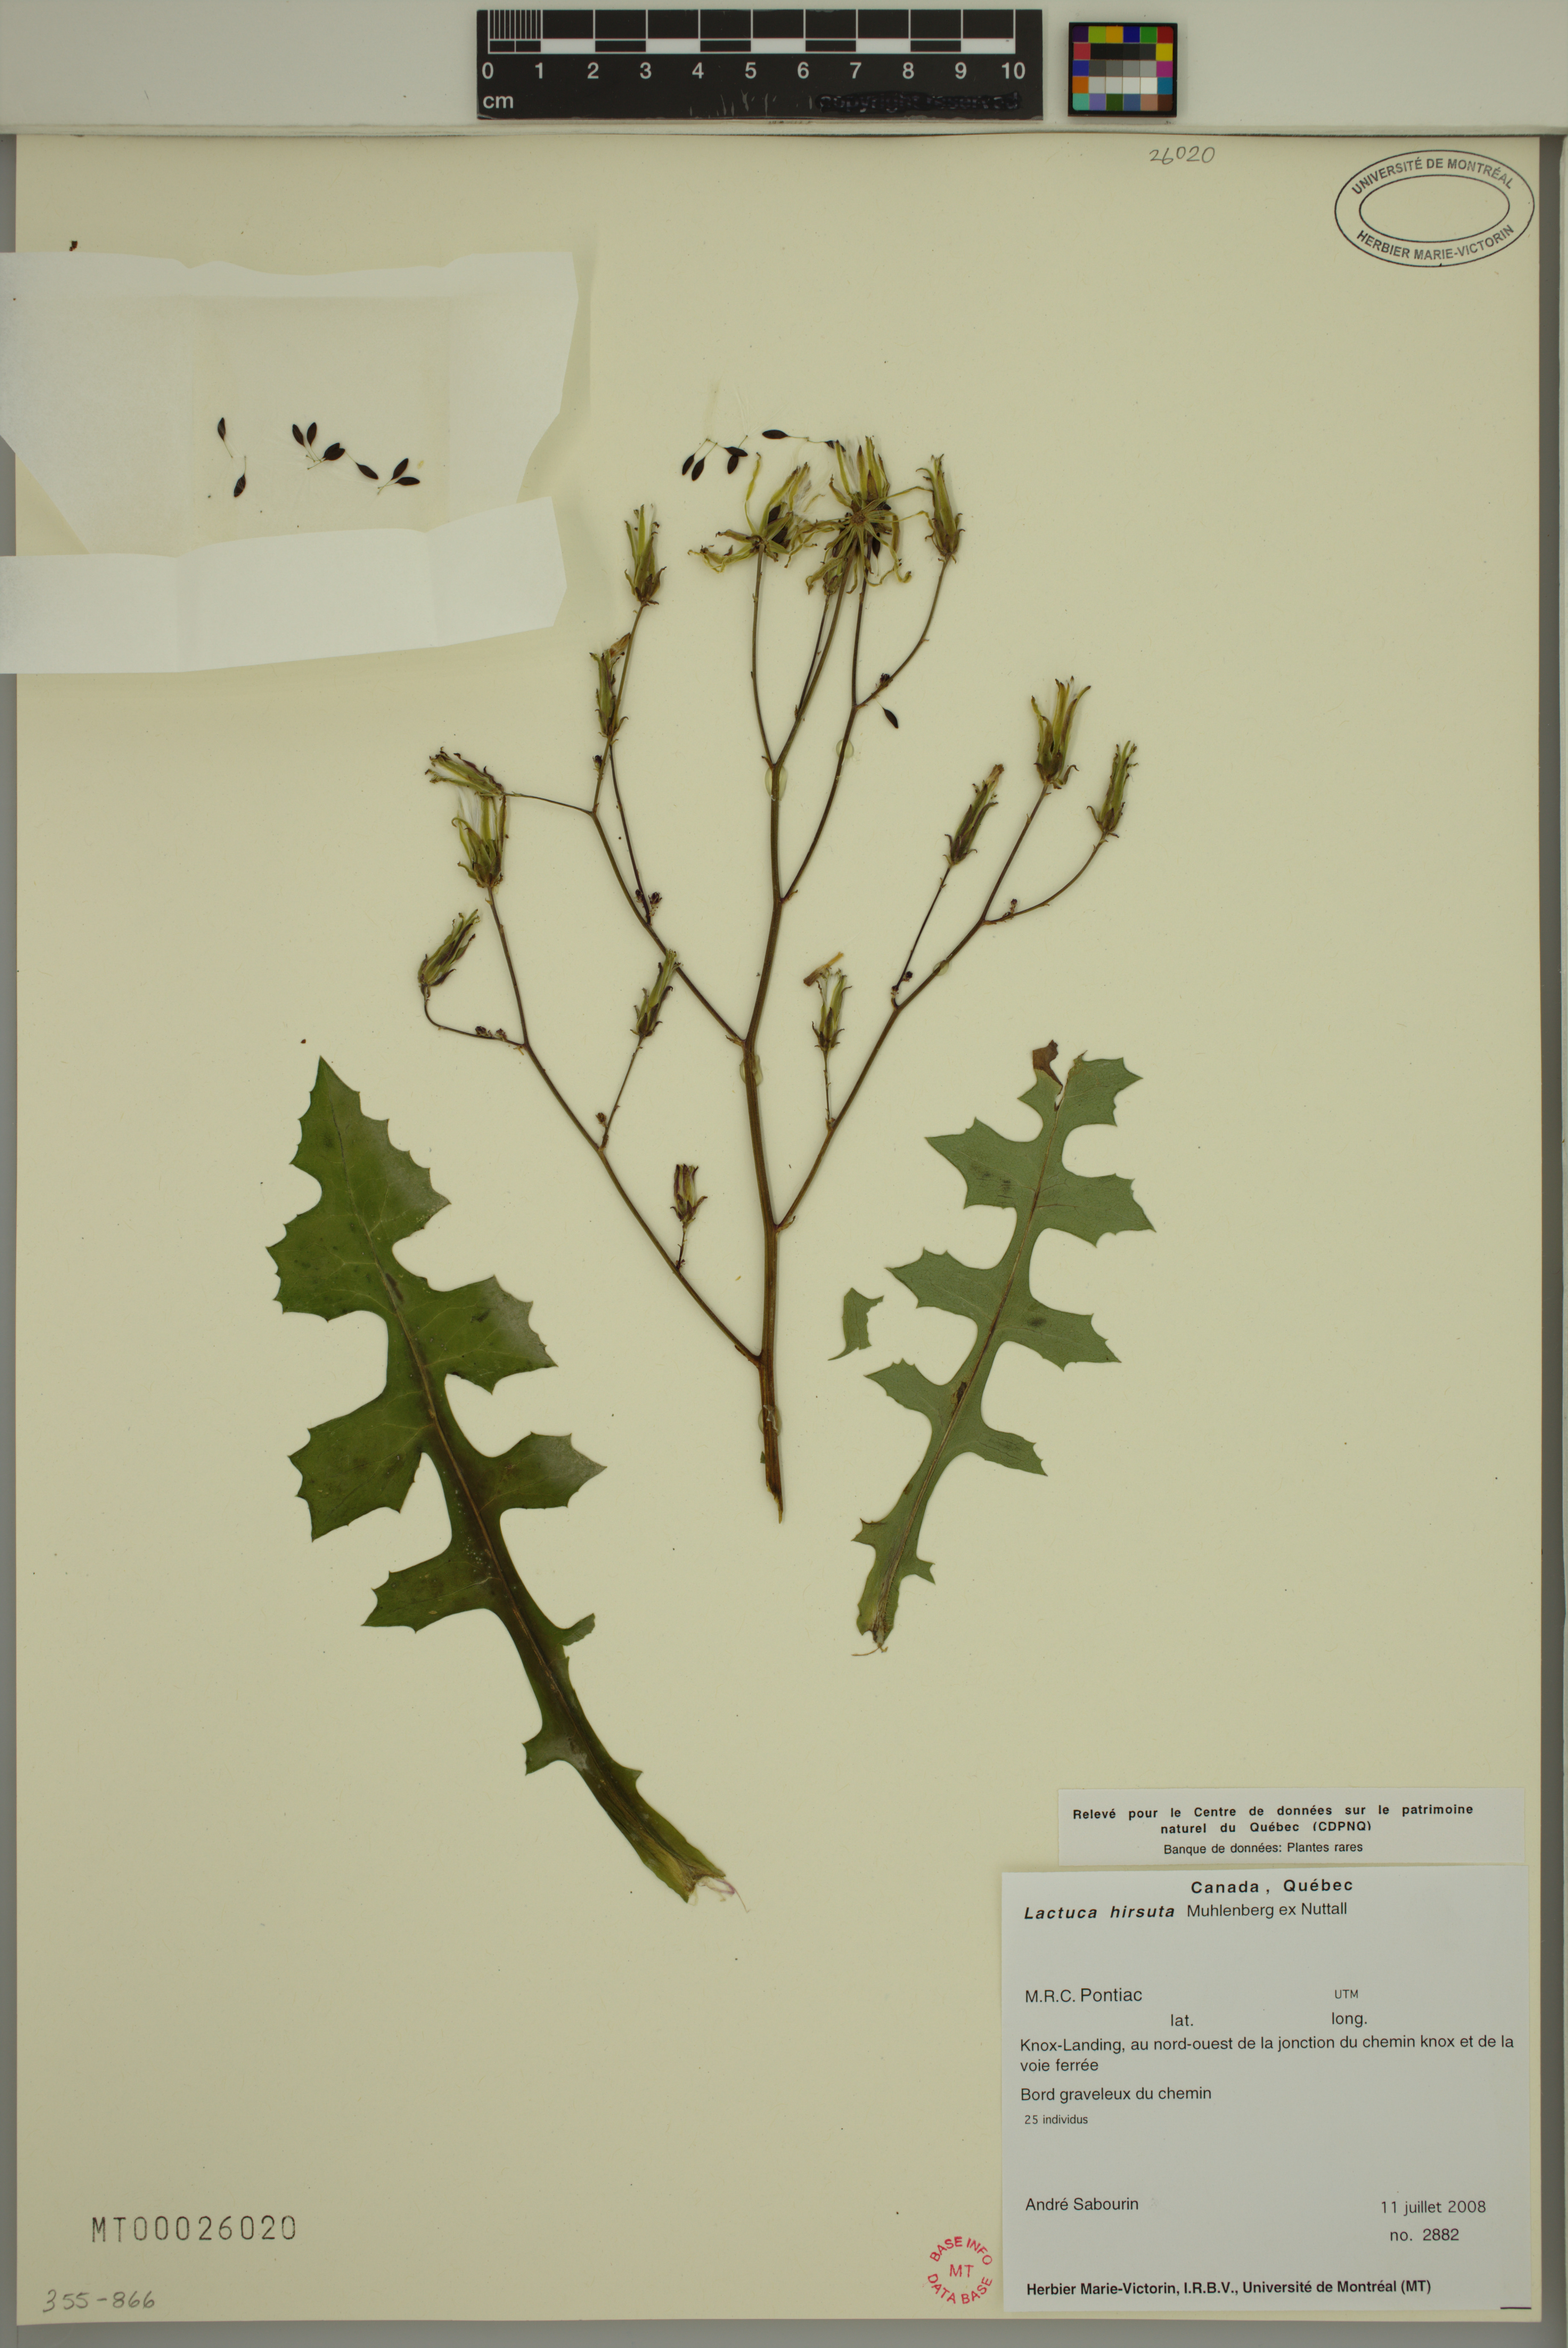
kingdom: Plantae
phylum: Tracheophyta
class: Magnoliopsida
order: Asterales
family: Asteraceae
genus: Lactuca
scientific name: Lactuca hirsuta
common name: Hairy lettuce
